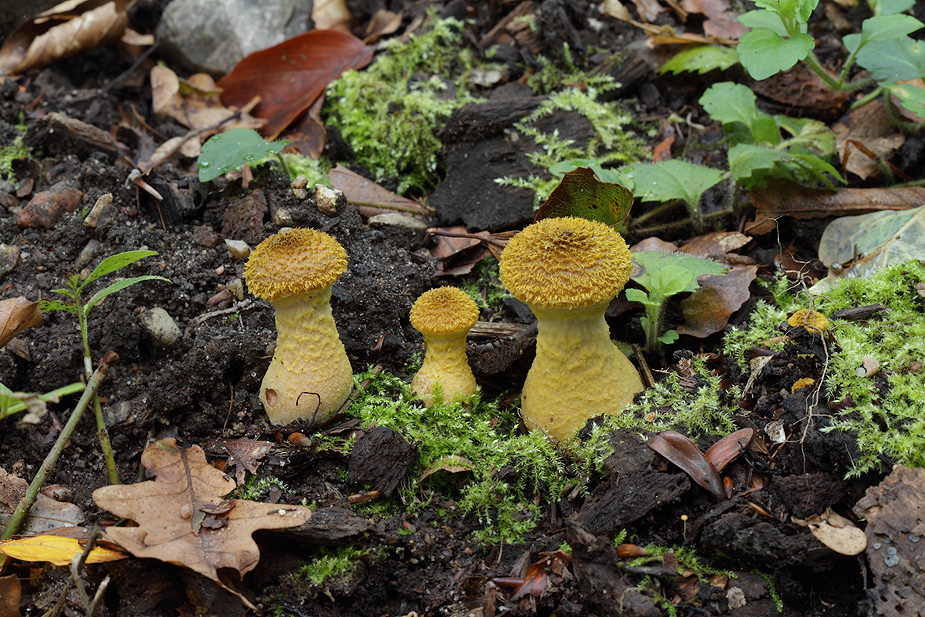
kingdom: Fungi
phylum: Basidiomycota
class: Agaricomycetes
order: Agaricales
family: Physalacriaceae
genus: Armillaria
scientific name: Armillaria lutea
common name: køllestokket honningsvamp
